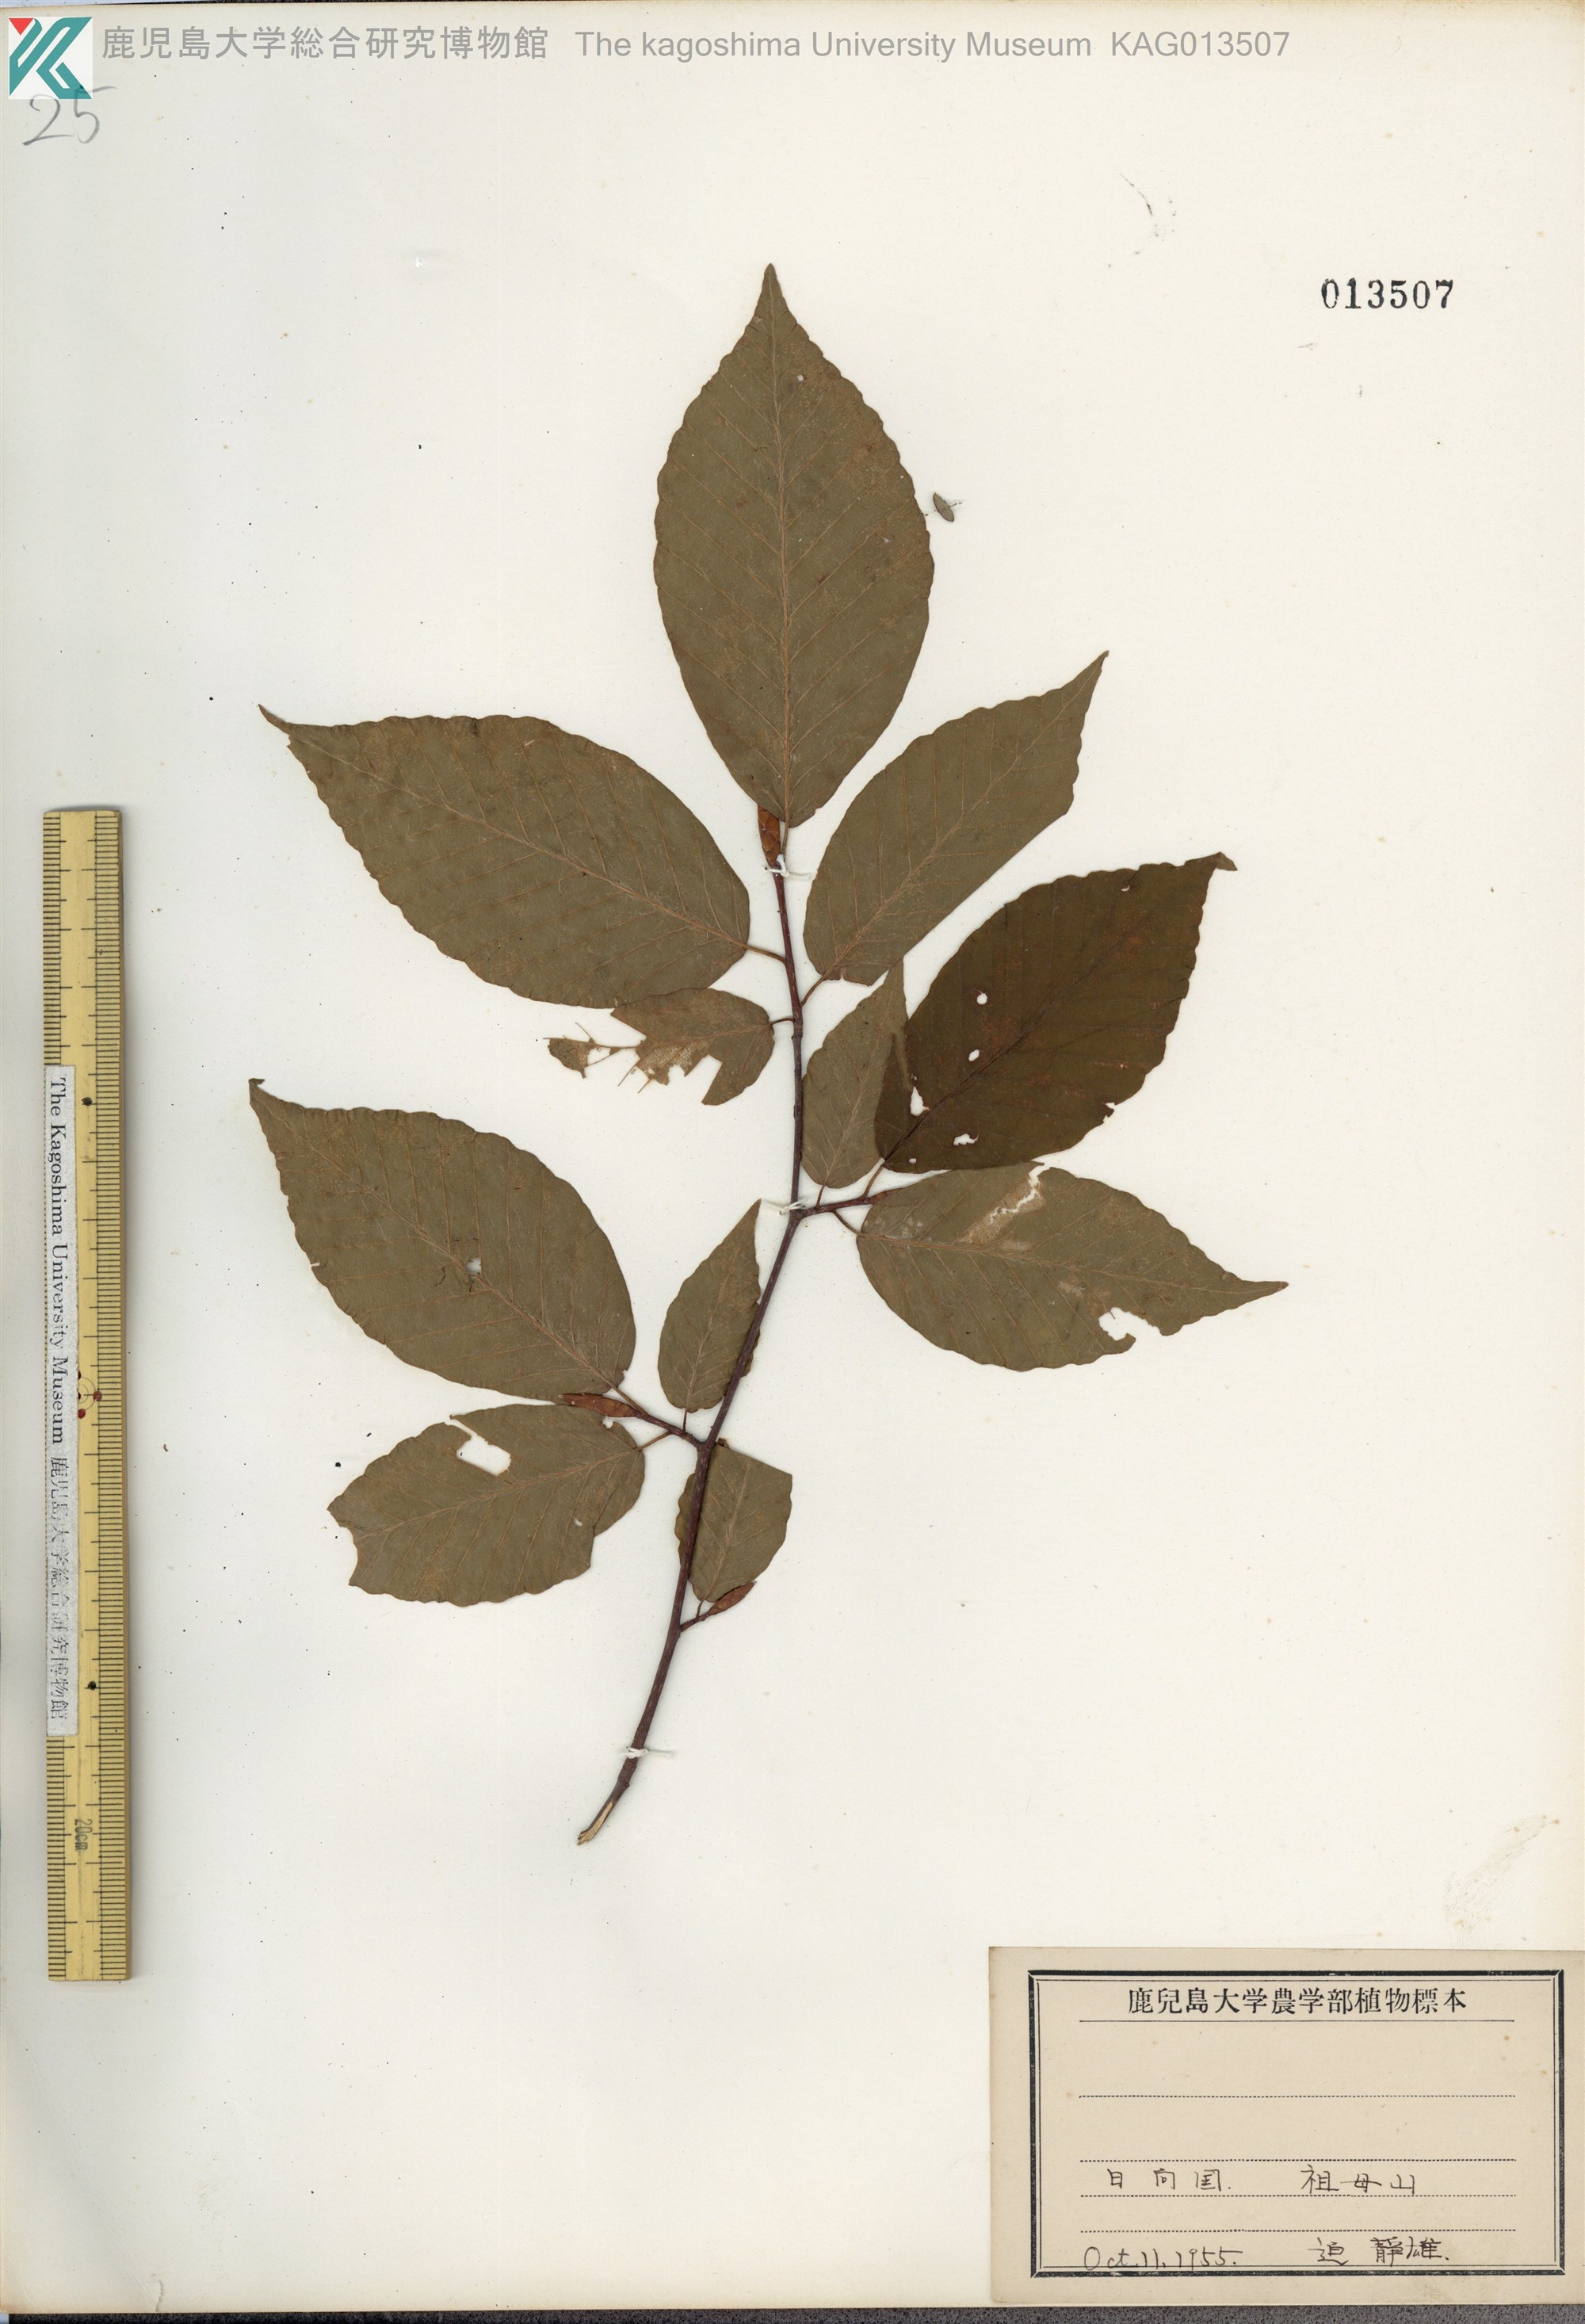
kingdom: Plantae
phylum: Tracheophyta
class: Magnoliopsida
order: Fagales
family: Fagaceae
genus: Fagus
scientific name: Fagus japonica
